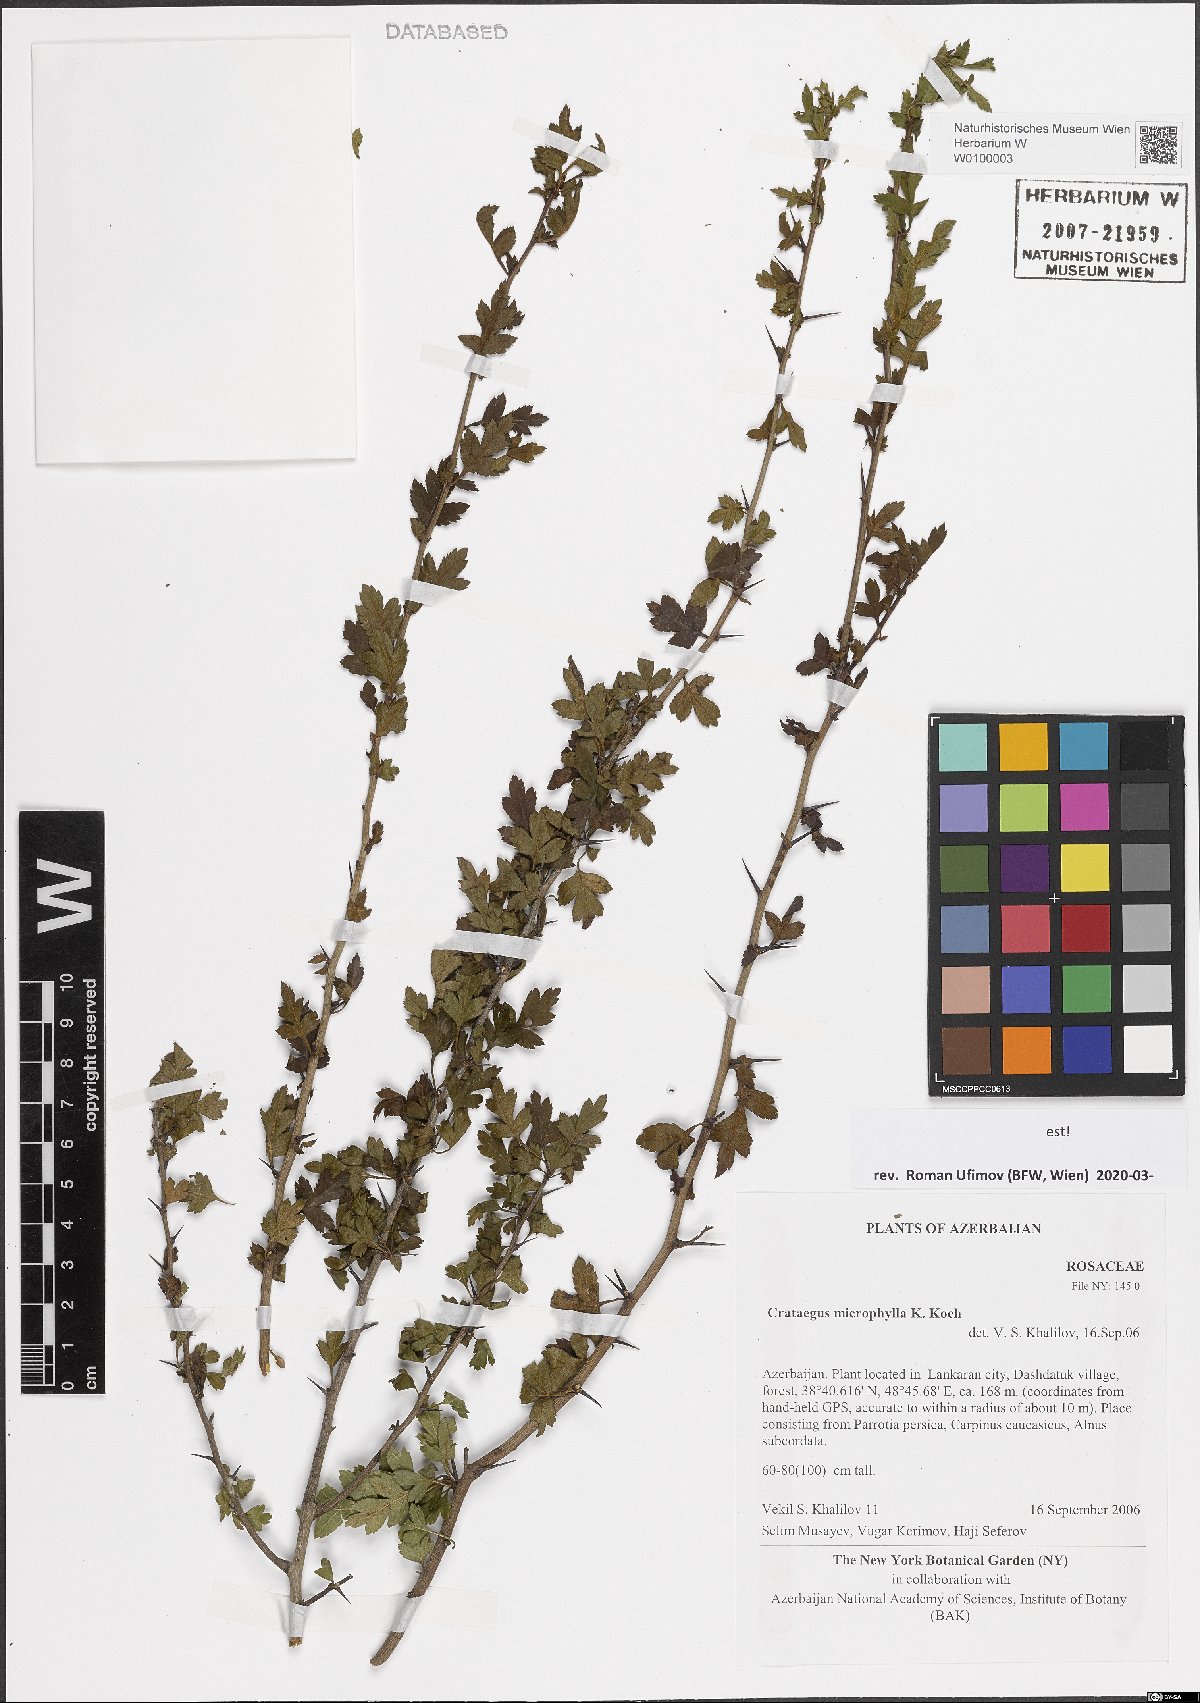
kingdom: Plantae
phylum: Tracheophyta
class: Magnoliopsida
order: Rosales
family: Rosaceae
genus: Crataegus
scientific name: Crataegus microphylla
